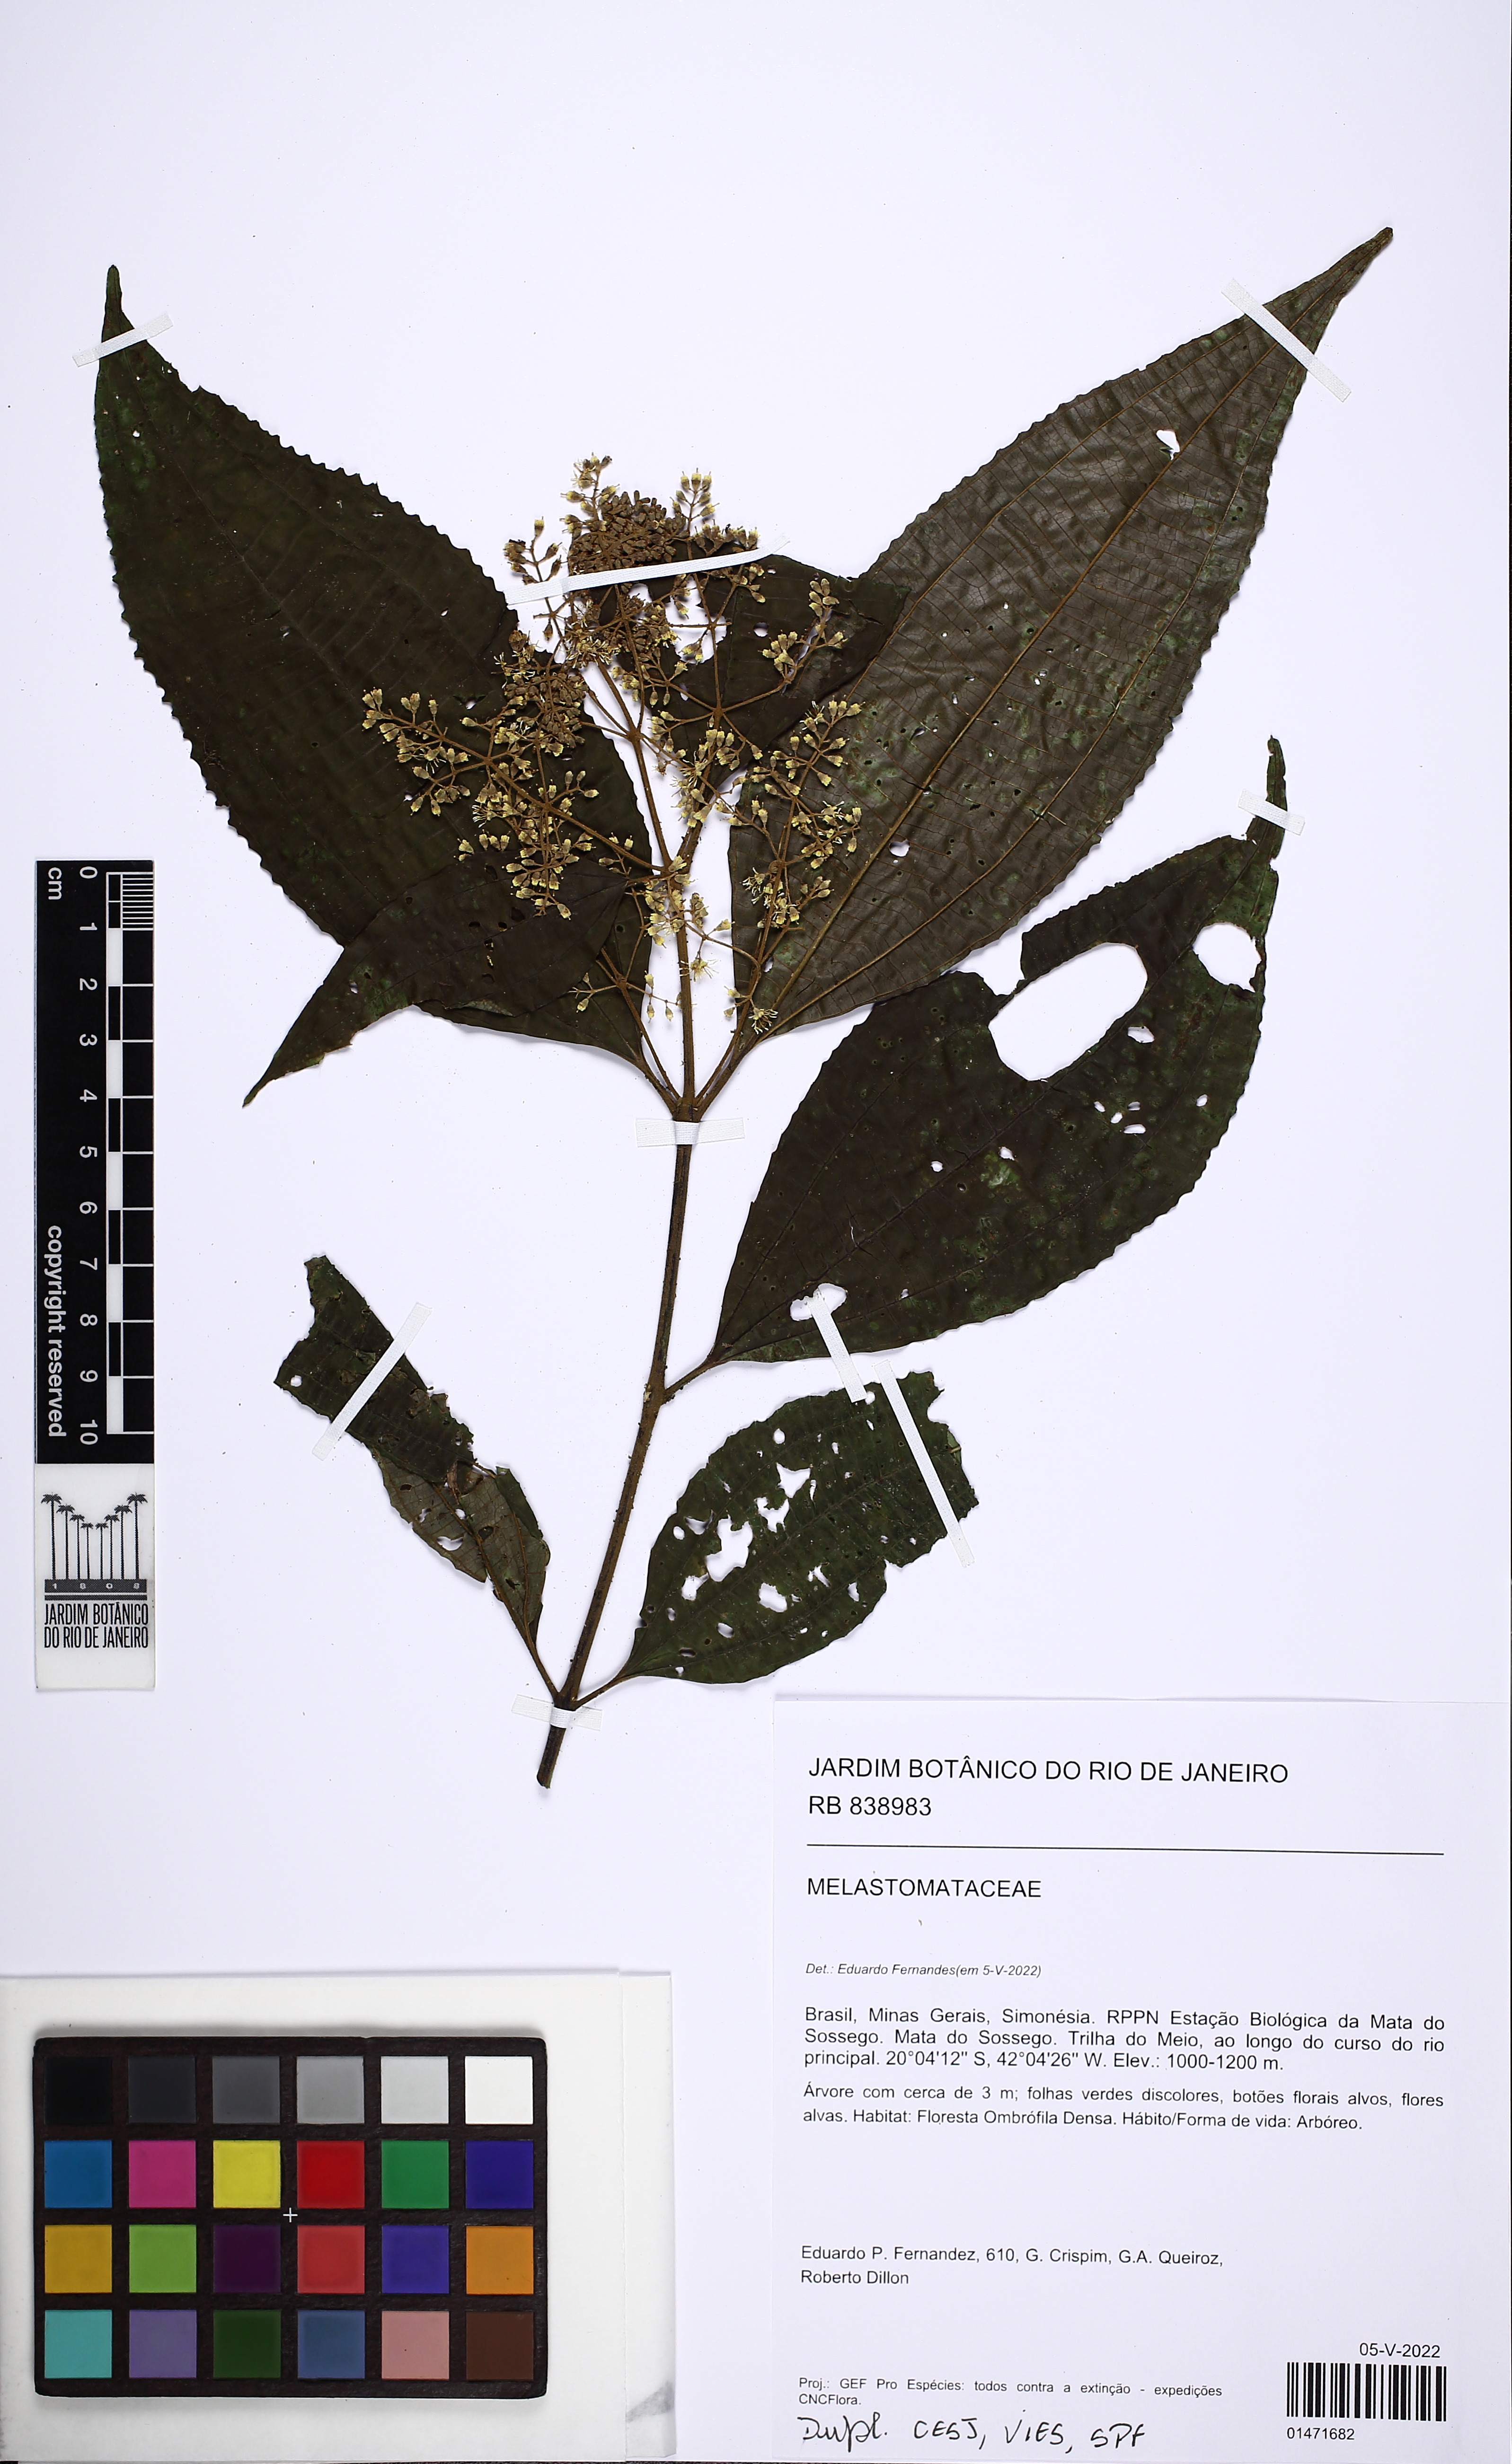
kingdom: Plantae
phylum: Tracheophyta
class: Magnoliopsida
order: Myrtales
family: Melastomataceae
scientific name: Melastomataceae
